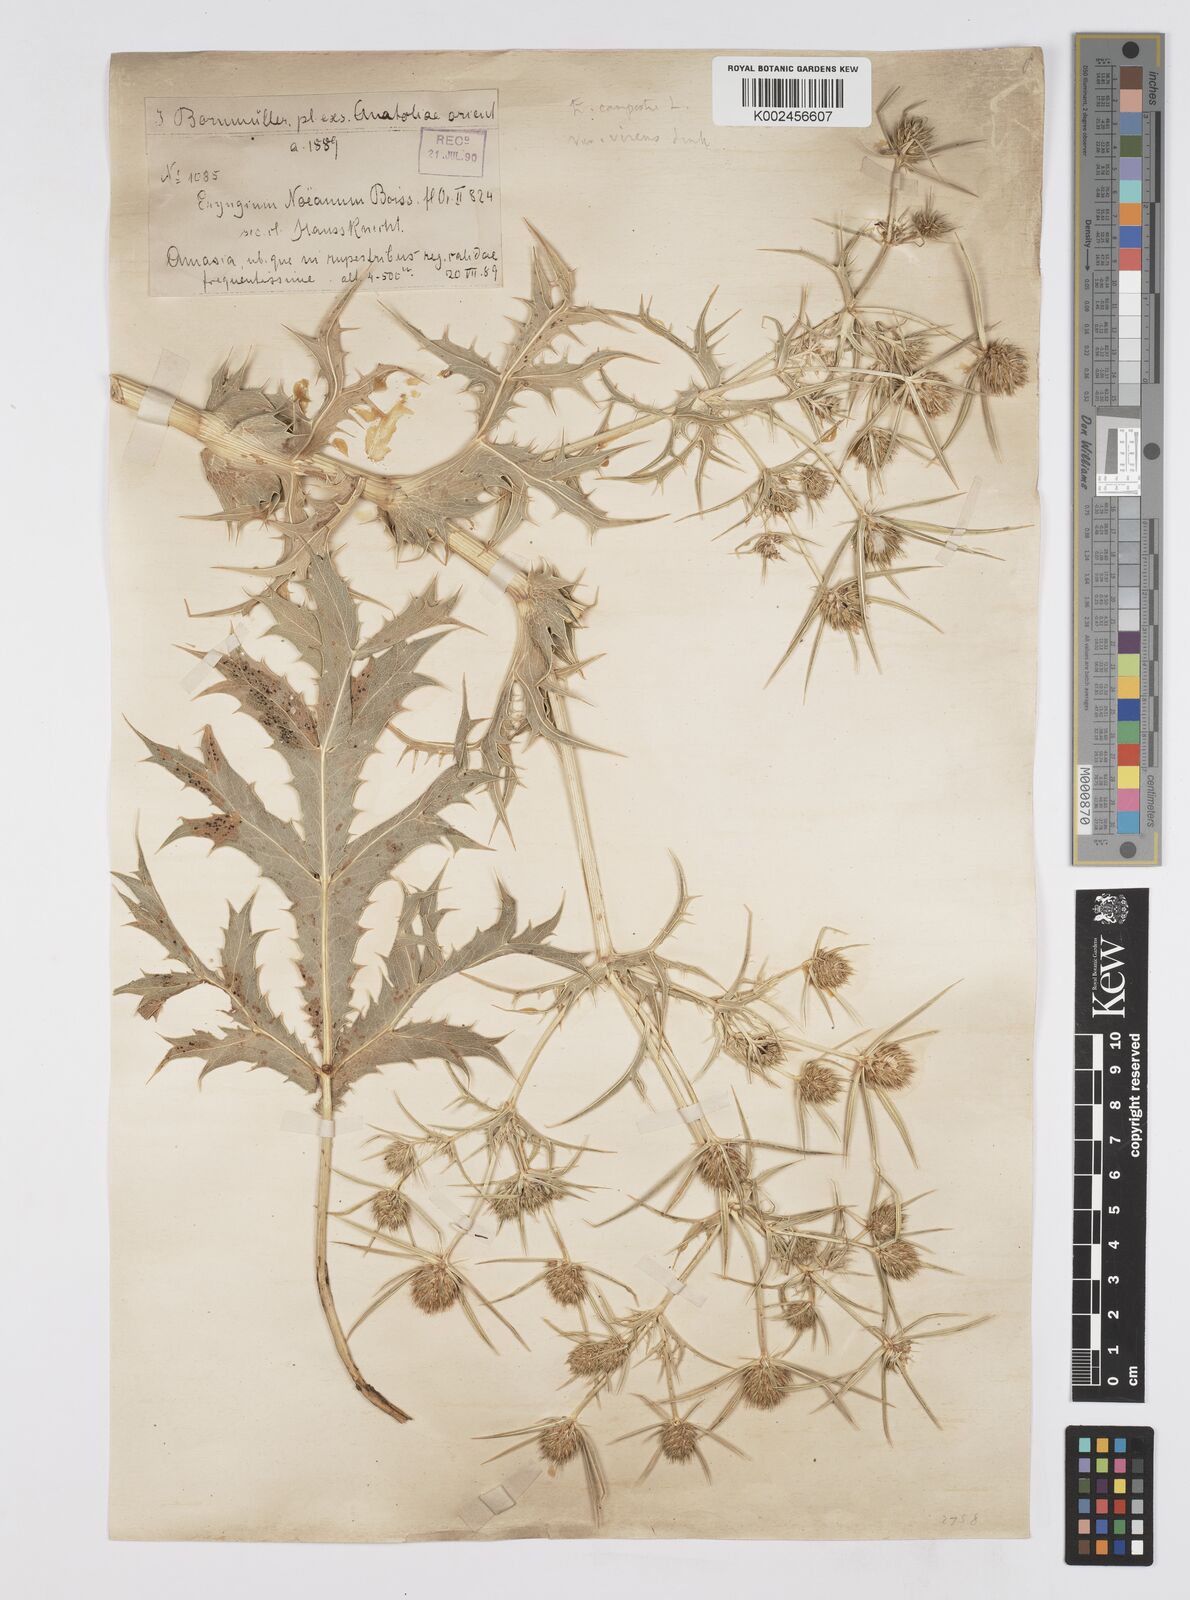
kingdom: Plantae
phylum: Tracheophyta
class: Magnoliopsida
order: Apiales
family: Apiaceae
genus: Eryngium
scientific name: Eryngium campestre
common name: Field eryngo
